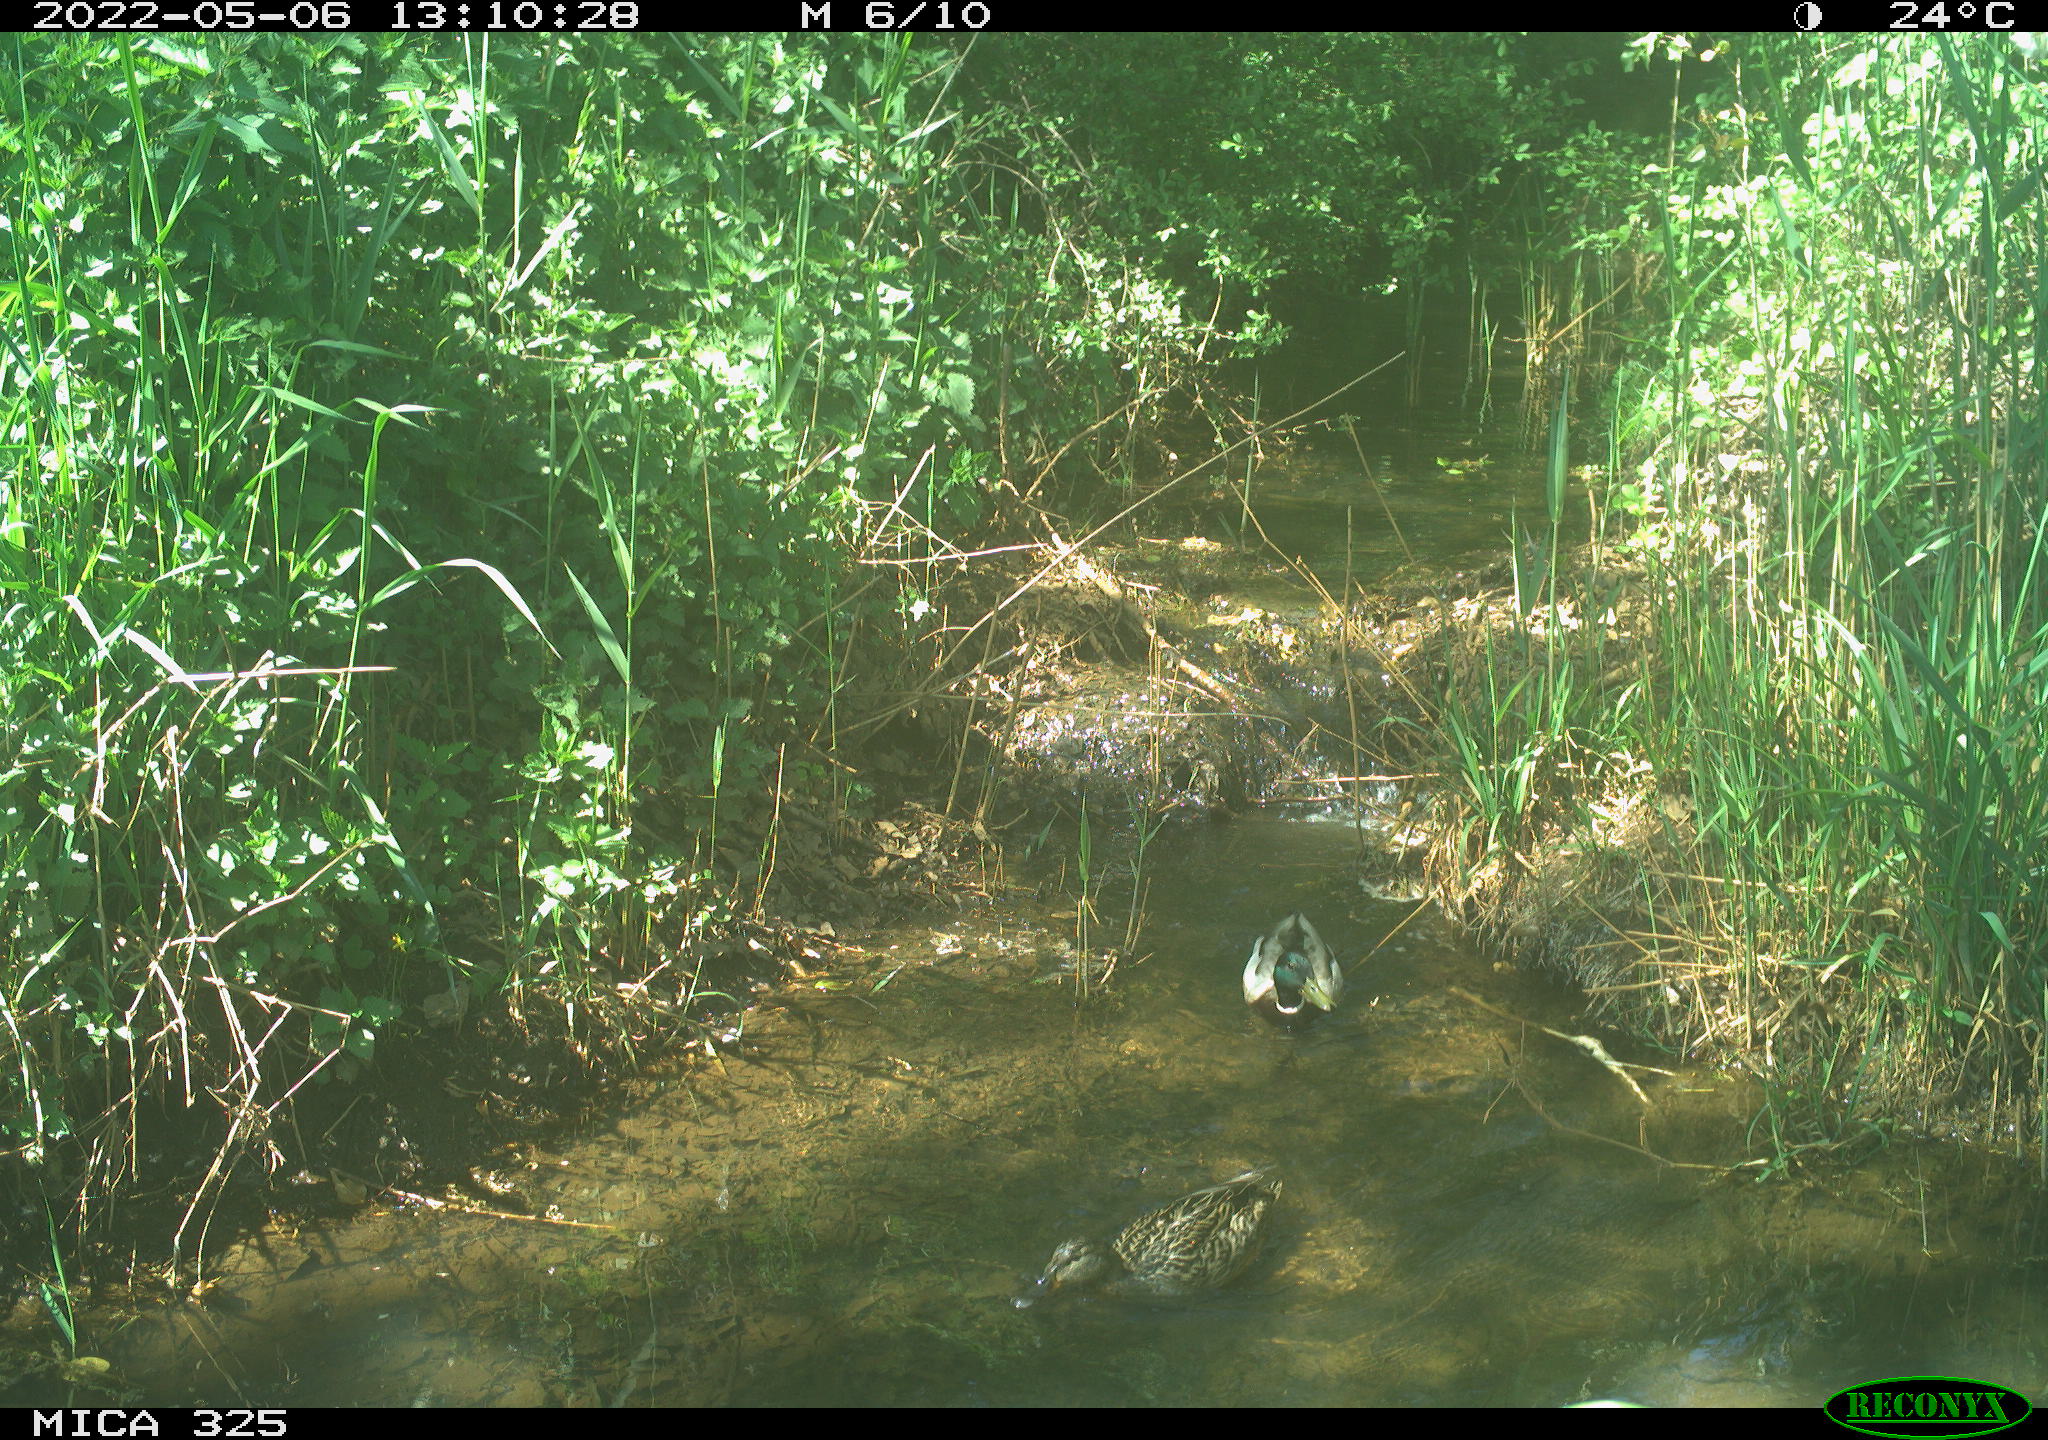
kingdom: Animalia
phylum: Chordata
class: Aves
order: Anseriformes
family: Anatidae
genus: Anas
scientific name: Anas platyrhynchos
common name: Mallard
